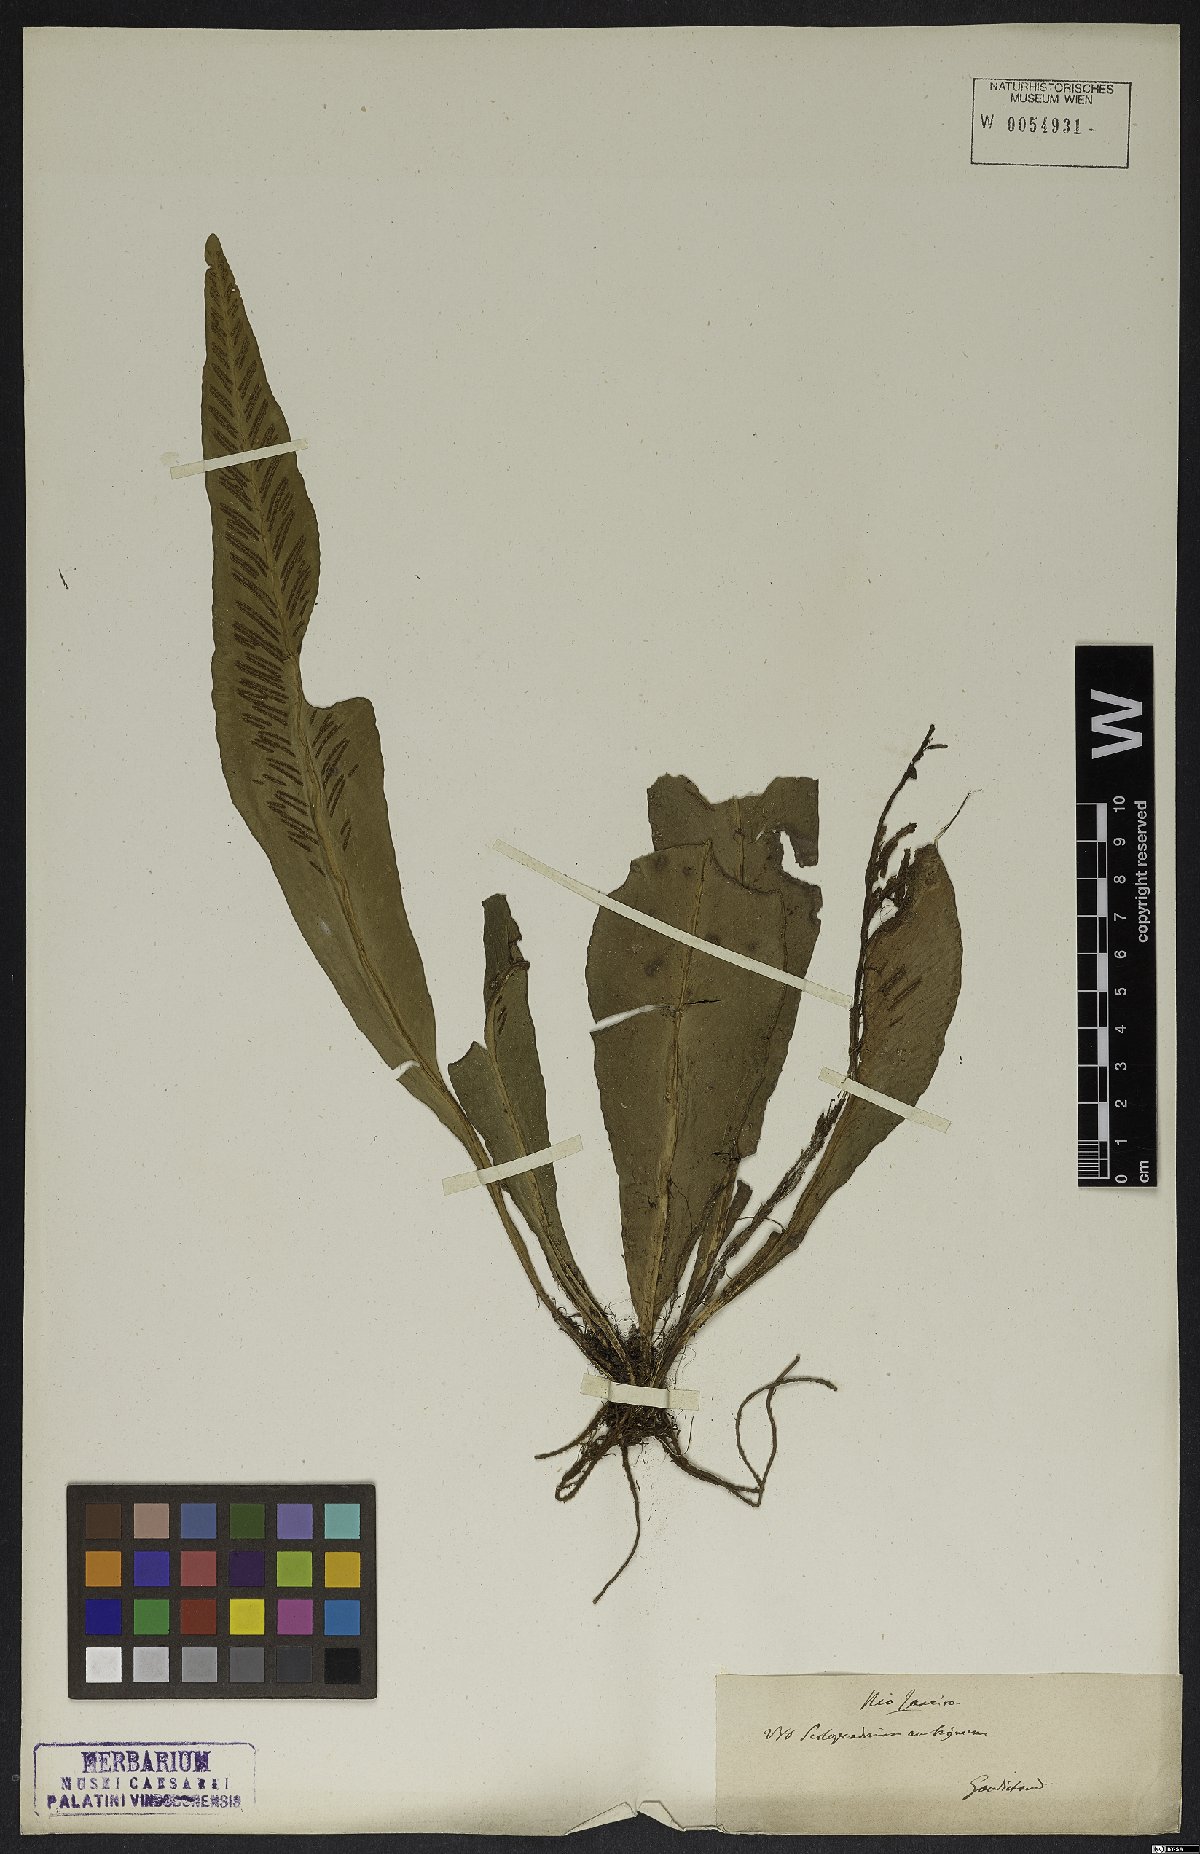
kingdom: Plantae
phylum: Tracheophyta
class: Polypodiopsida
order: Polypodiales
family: Aspleniaceae
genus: Asplenium
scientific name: Asplenium brasiliense
